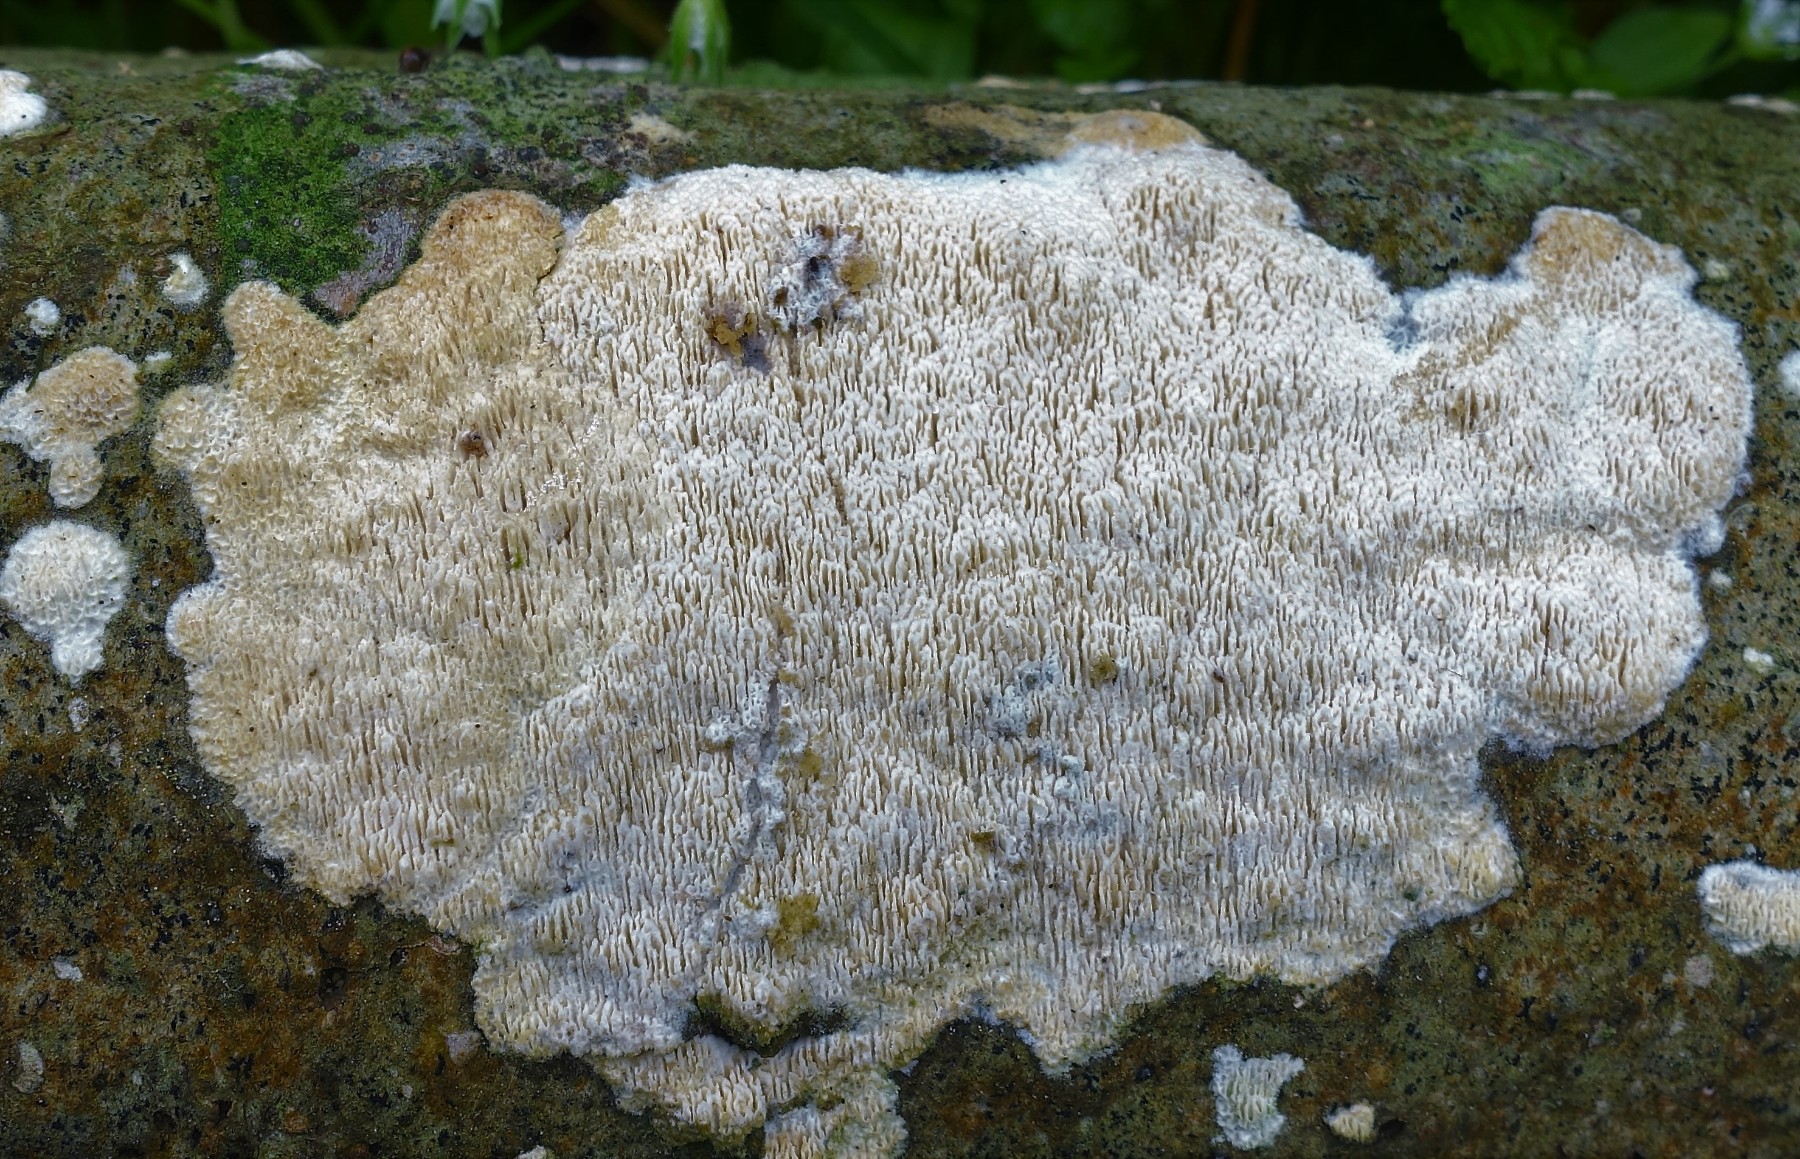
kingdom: Fungi
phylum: Basidiomycota
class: Agaricomycetes
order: Hymenochaetales
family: Schizoporaceae
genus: Schizopora
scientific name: Schizopora paradoxa
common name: hvid tandsvamp
